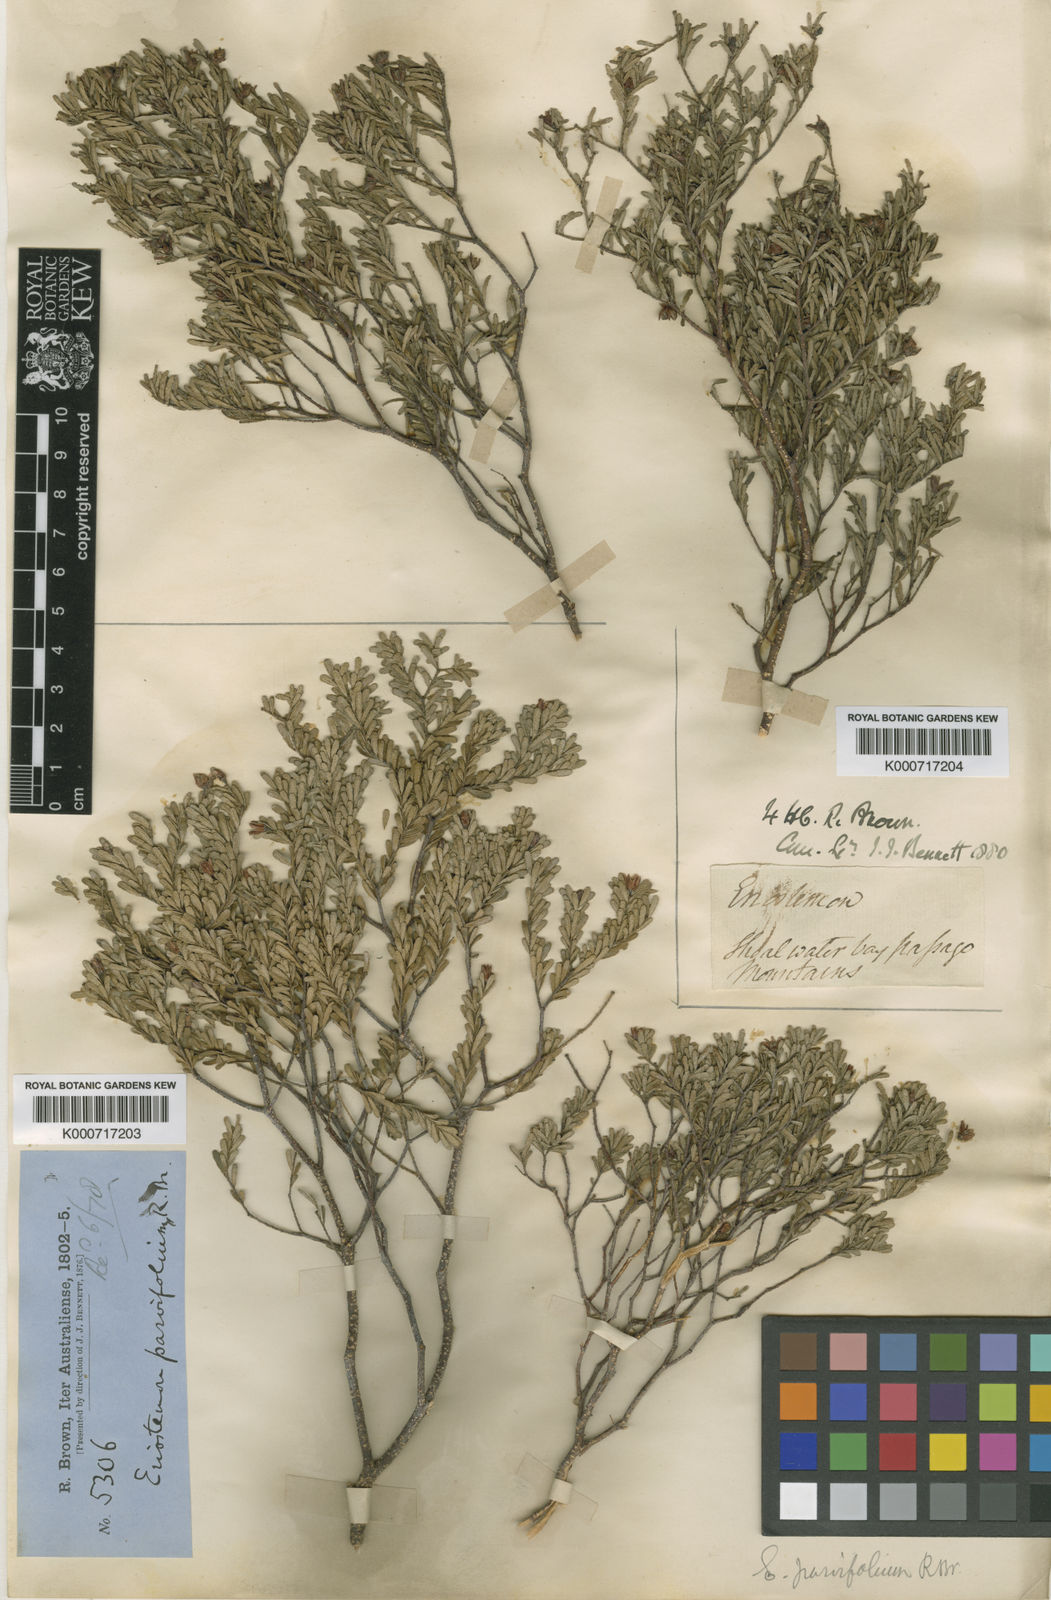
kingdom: Plantae
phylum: Tracheophyta
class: Magnoliopsida
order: Sapindales
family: Rutaceae
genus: Philotheca
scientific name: Philotheca difformis
